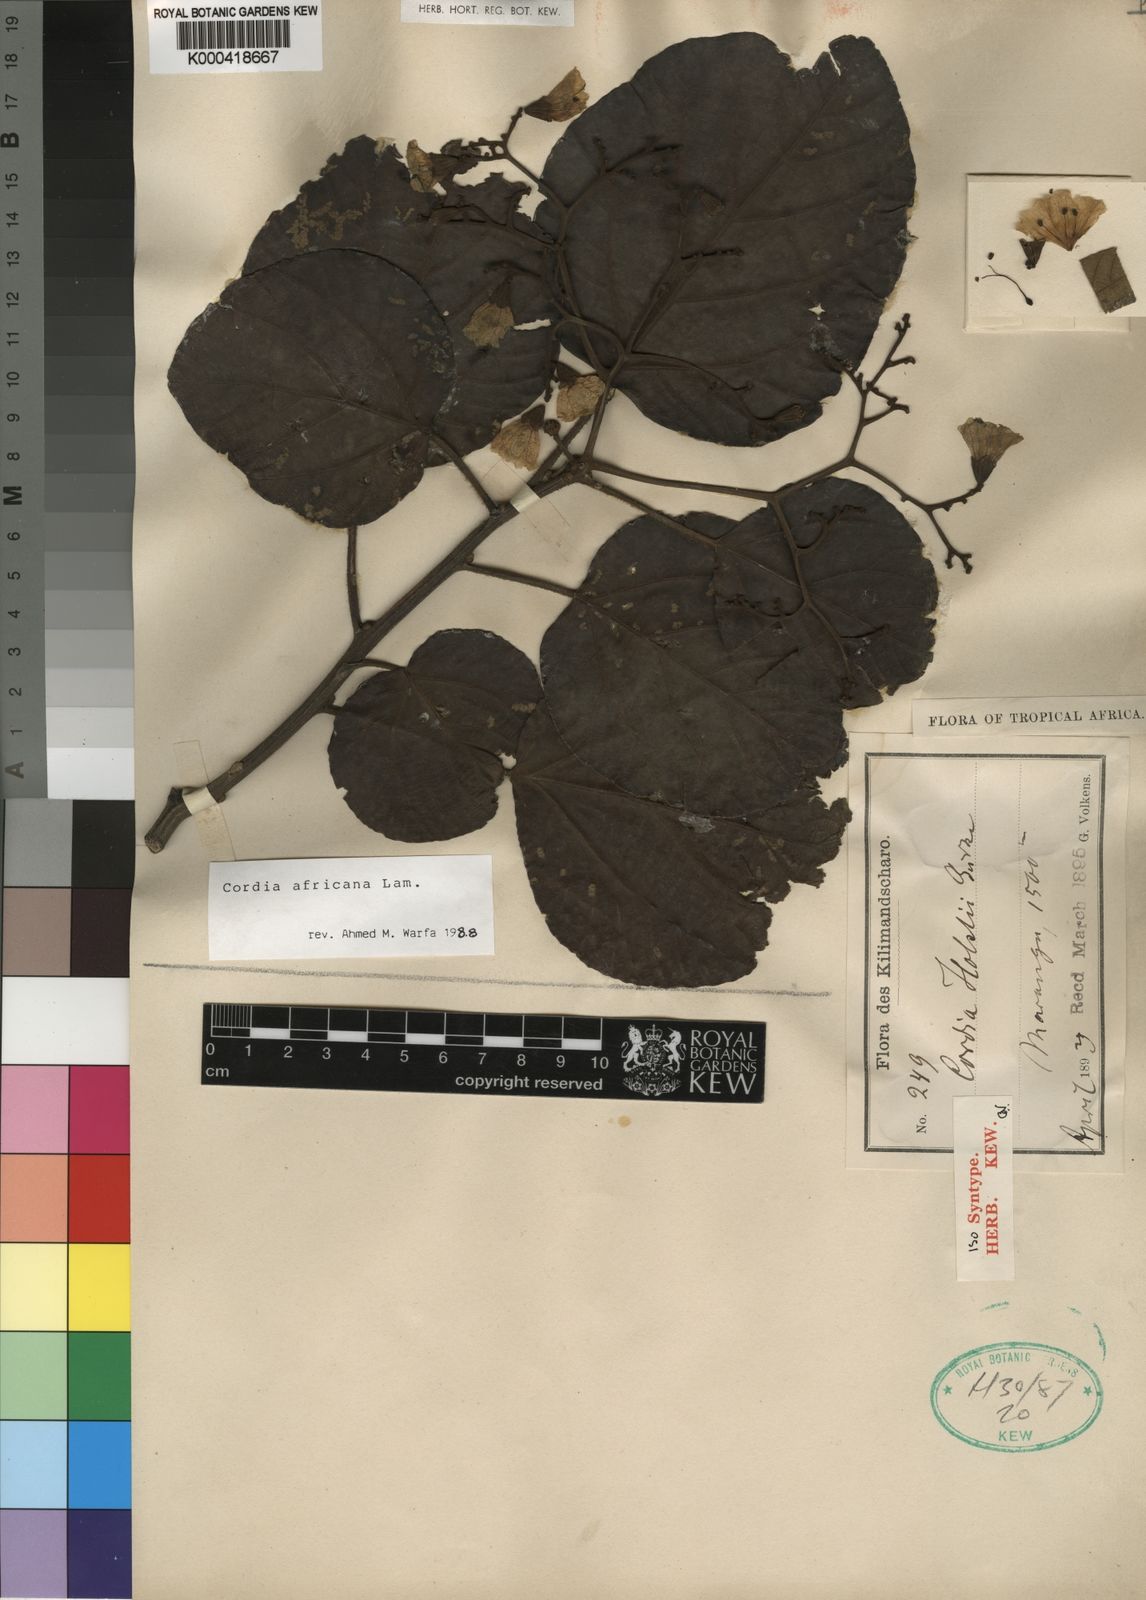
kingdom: Plantae
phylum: Tracheophyta
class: Magnoliopsida
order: Boraginales
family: Cordiaceae
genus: Cordia
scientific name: Cordia africana
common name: Large-leaved cordia
